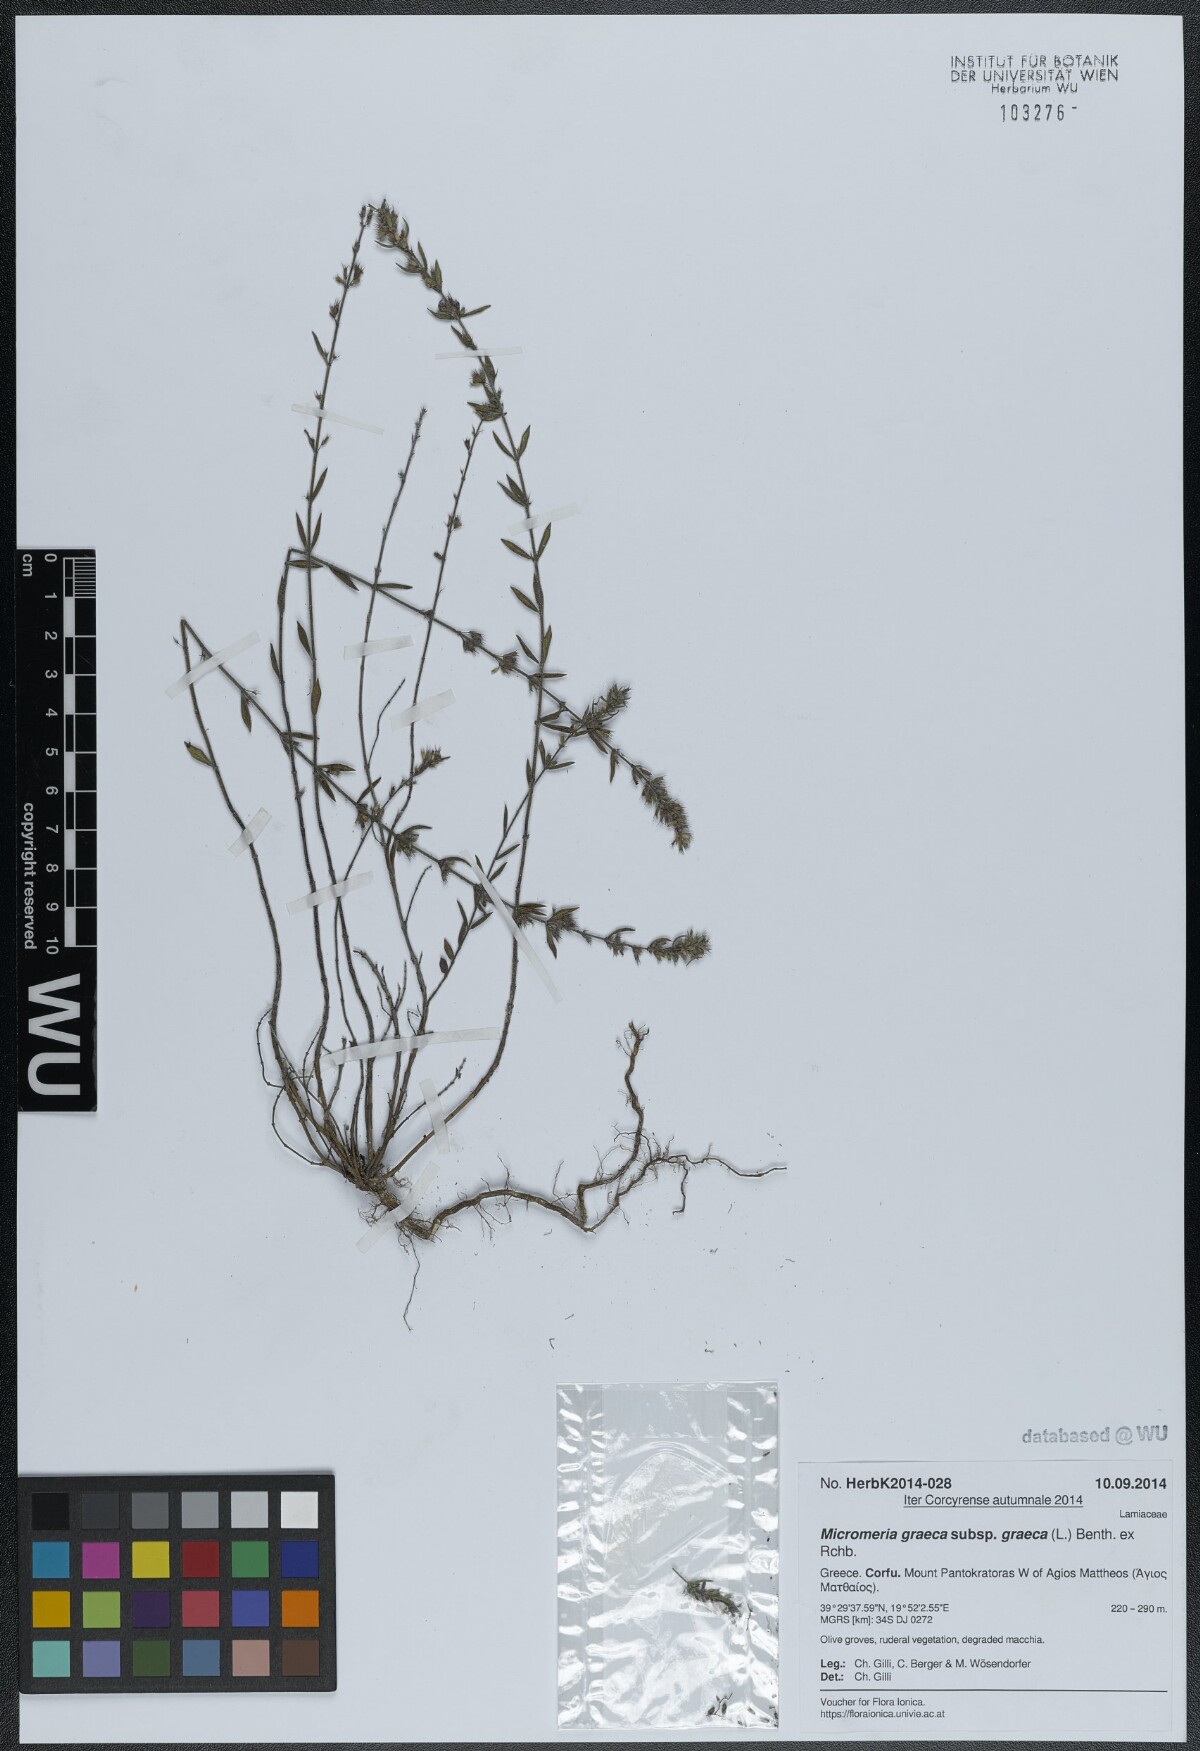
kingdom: Plantae
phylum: Tracheophyta
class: Magnoliopsida
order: Lamiales
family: Lamiaceae
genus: Micromeria
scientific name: Micromeria graeca
